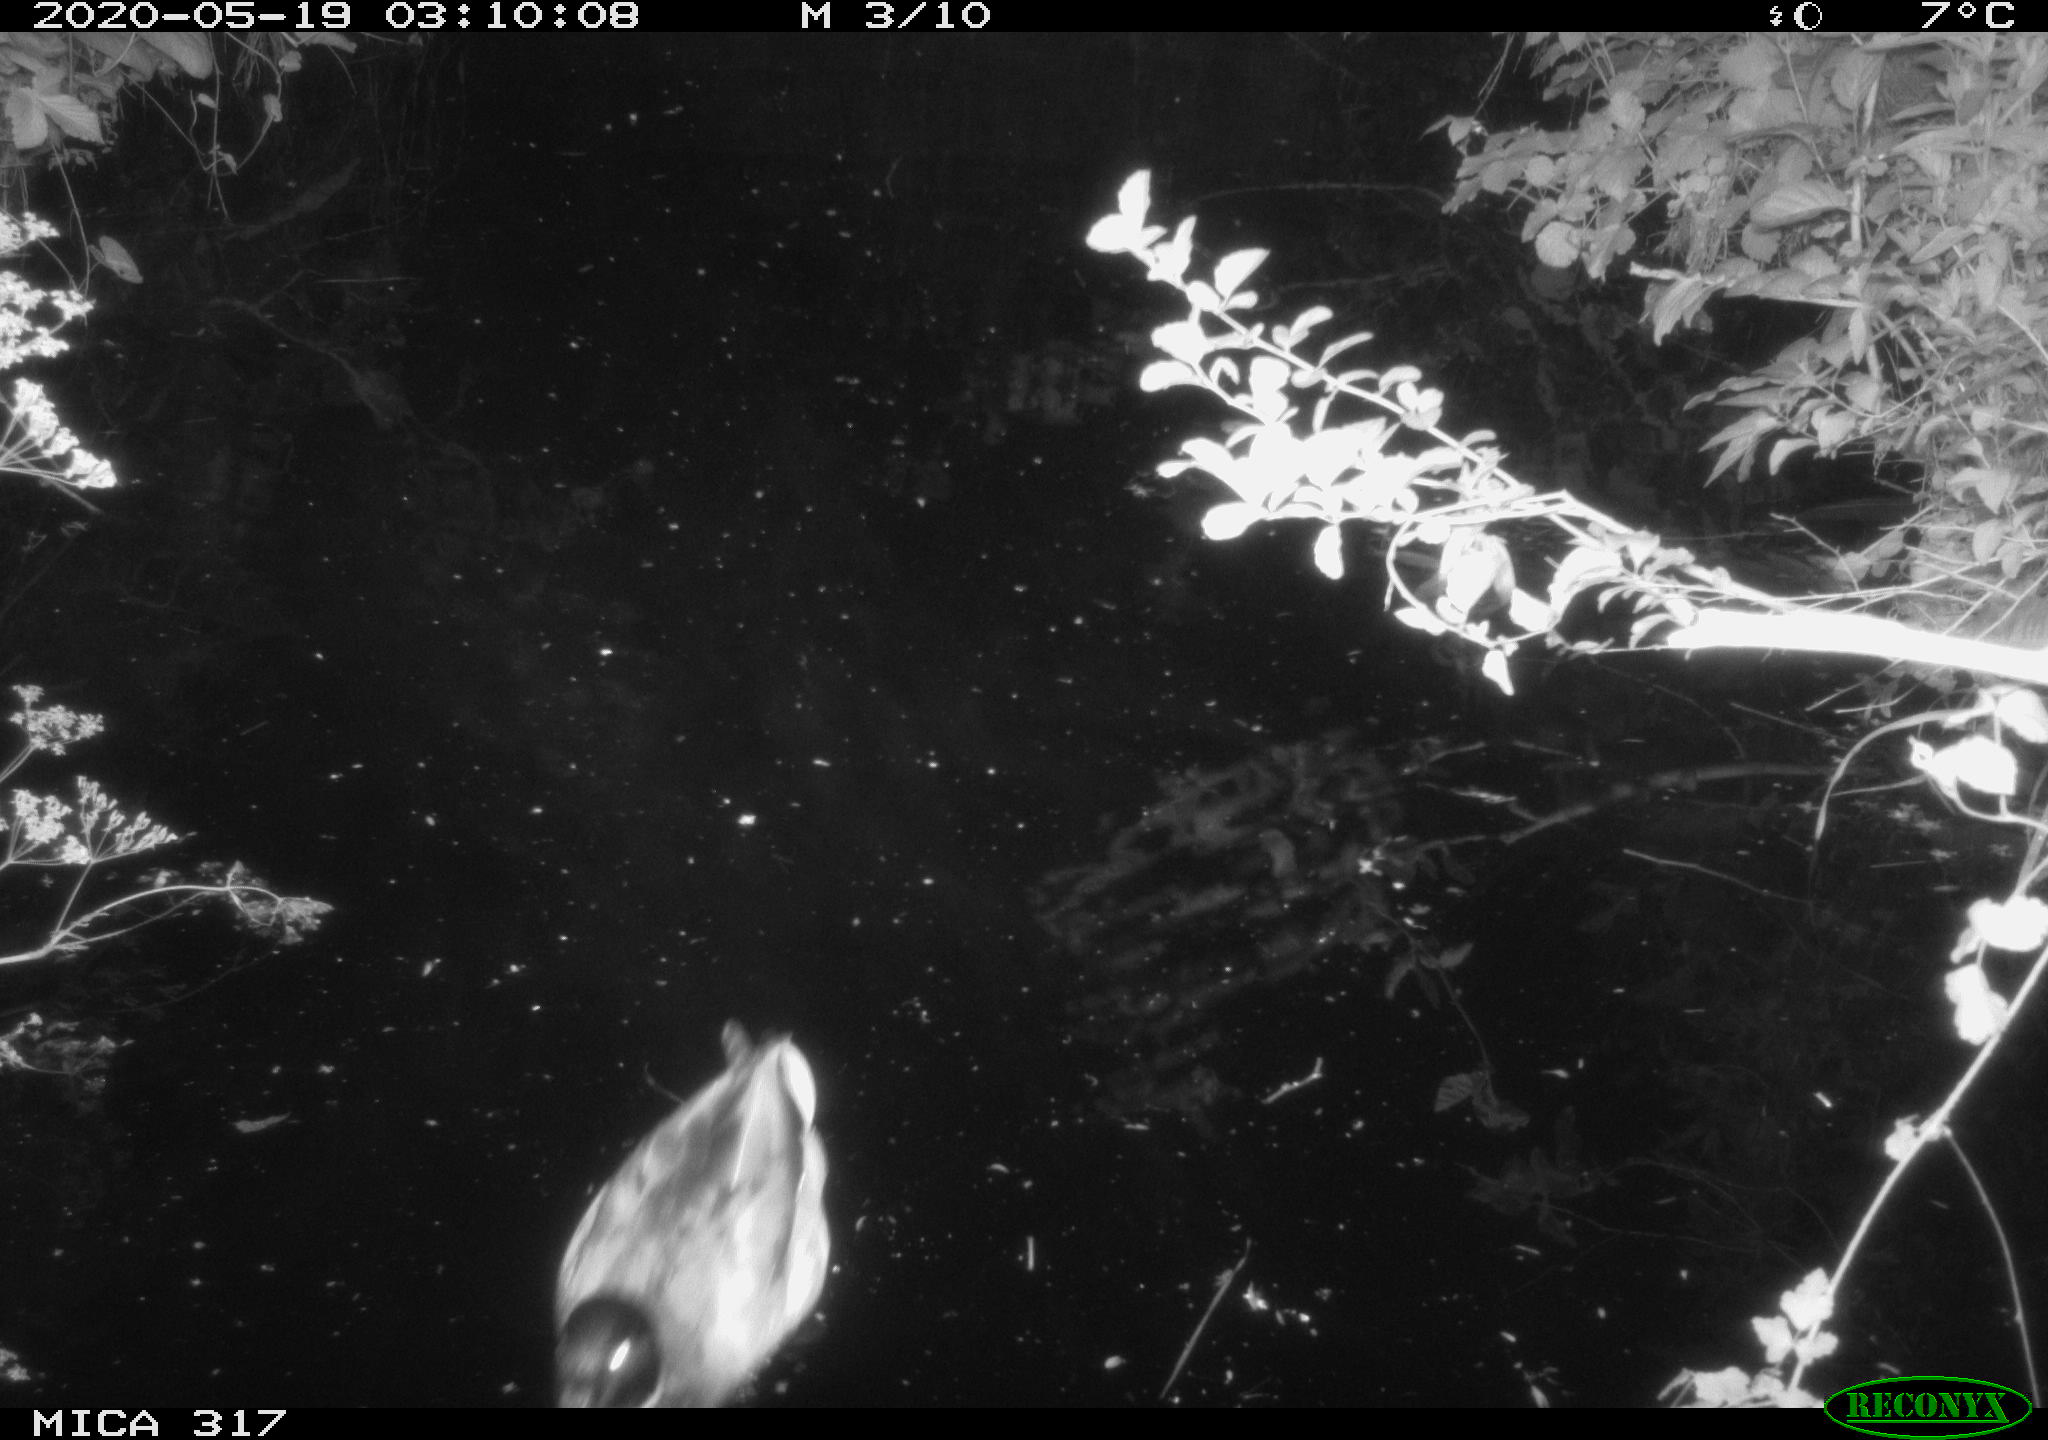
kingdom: Animalia
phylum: Chordata
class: Aves
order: Anseriformes
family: Anatidae
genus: Anas
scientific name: Anas platyrhynchos
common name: Mallard
